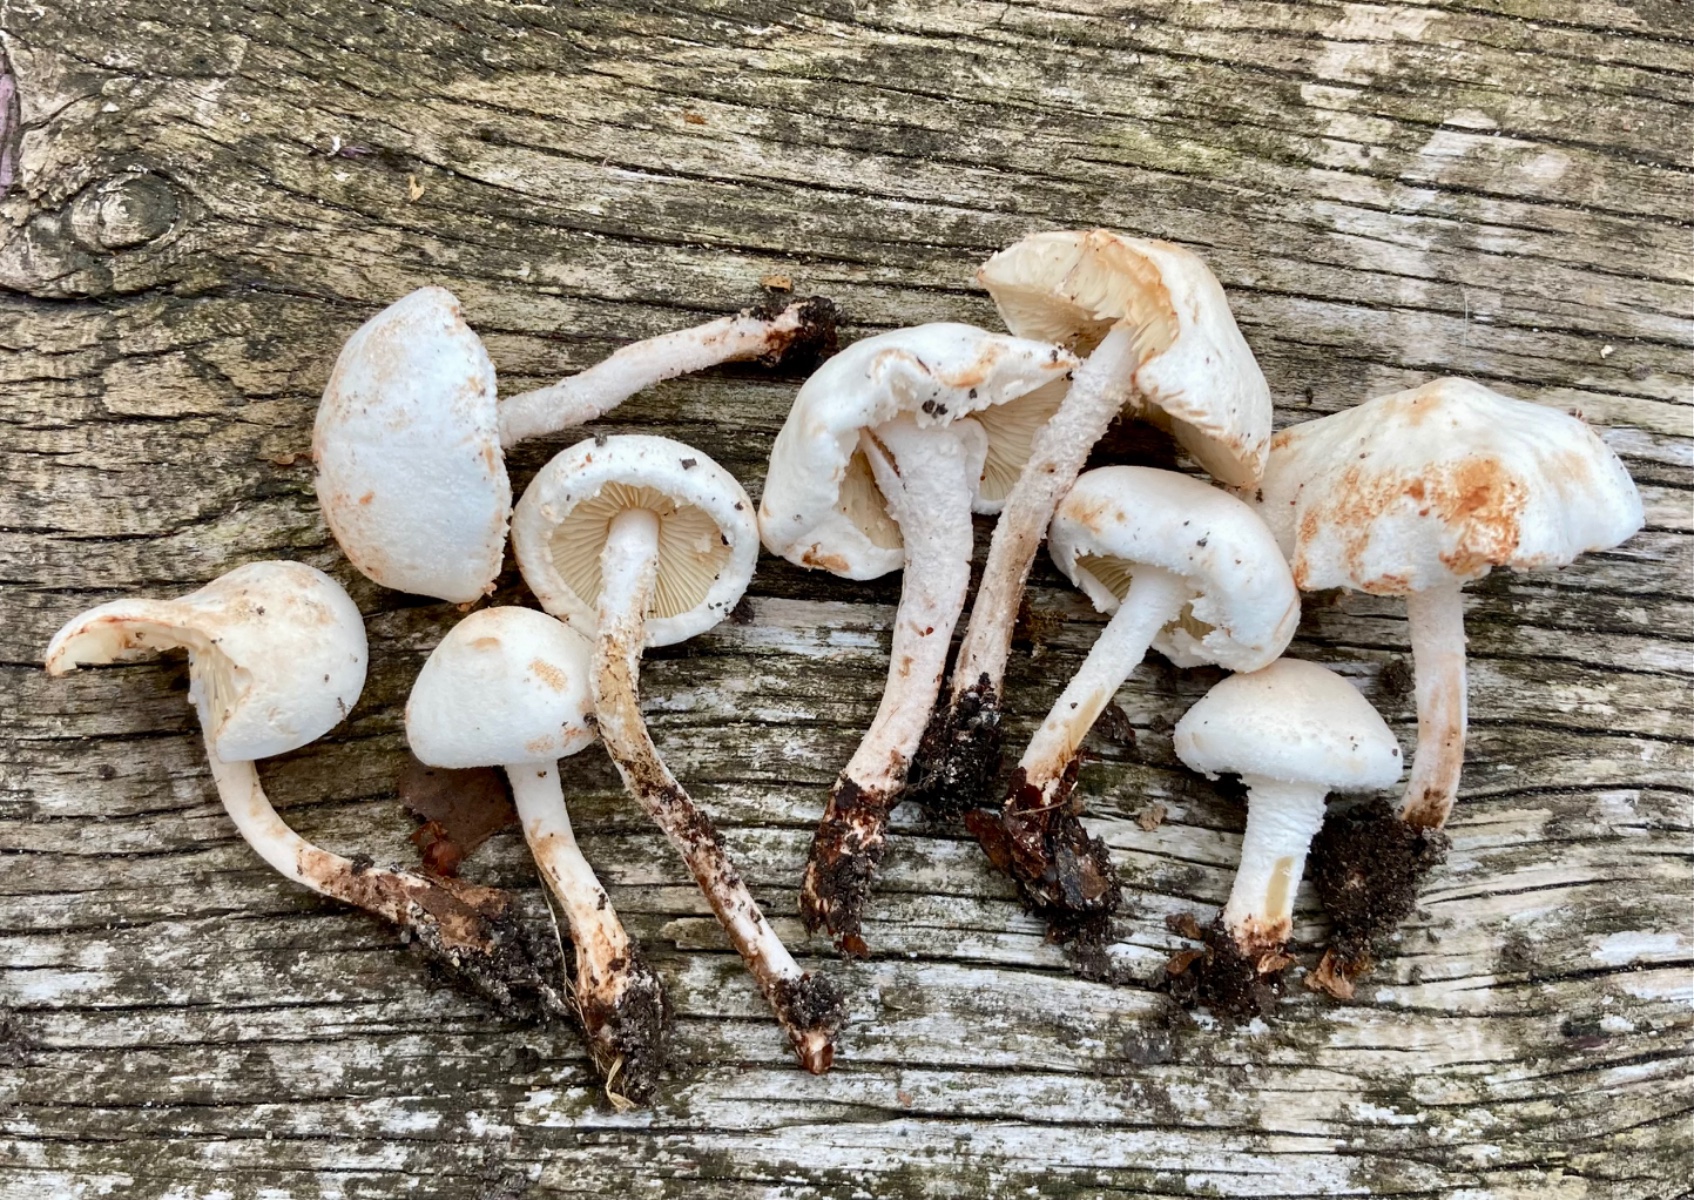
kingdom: Fungi
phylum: Basidiomycota
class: Agaricomycetes
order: Agaricales
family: Agaricaceae
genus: Cystolepiota
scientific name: Cystolepiota hetieri
